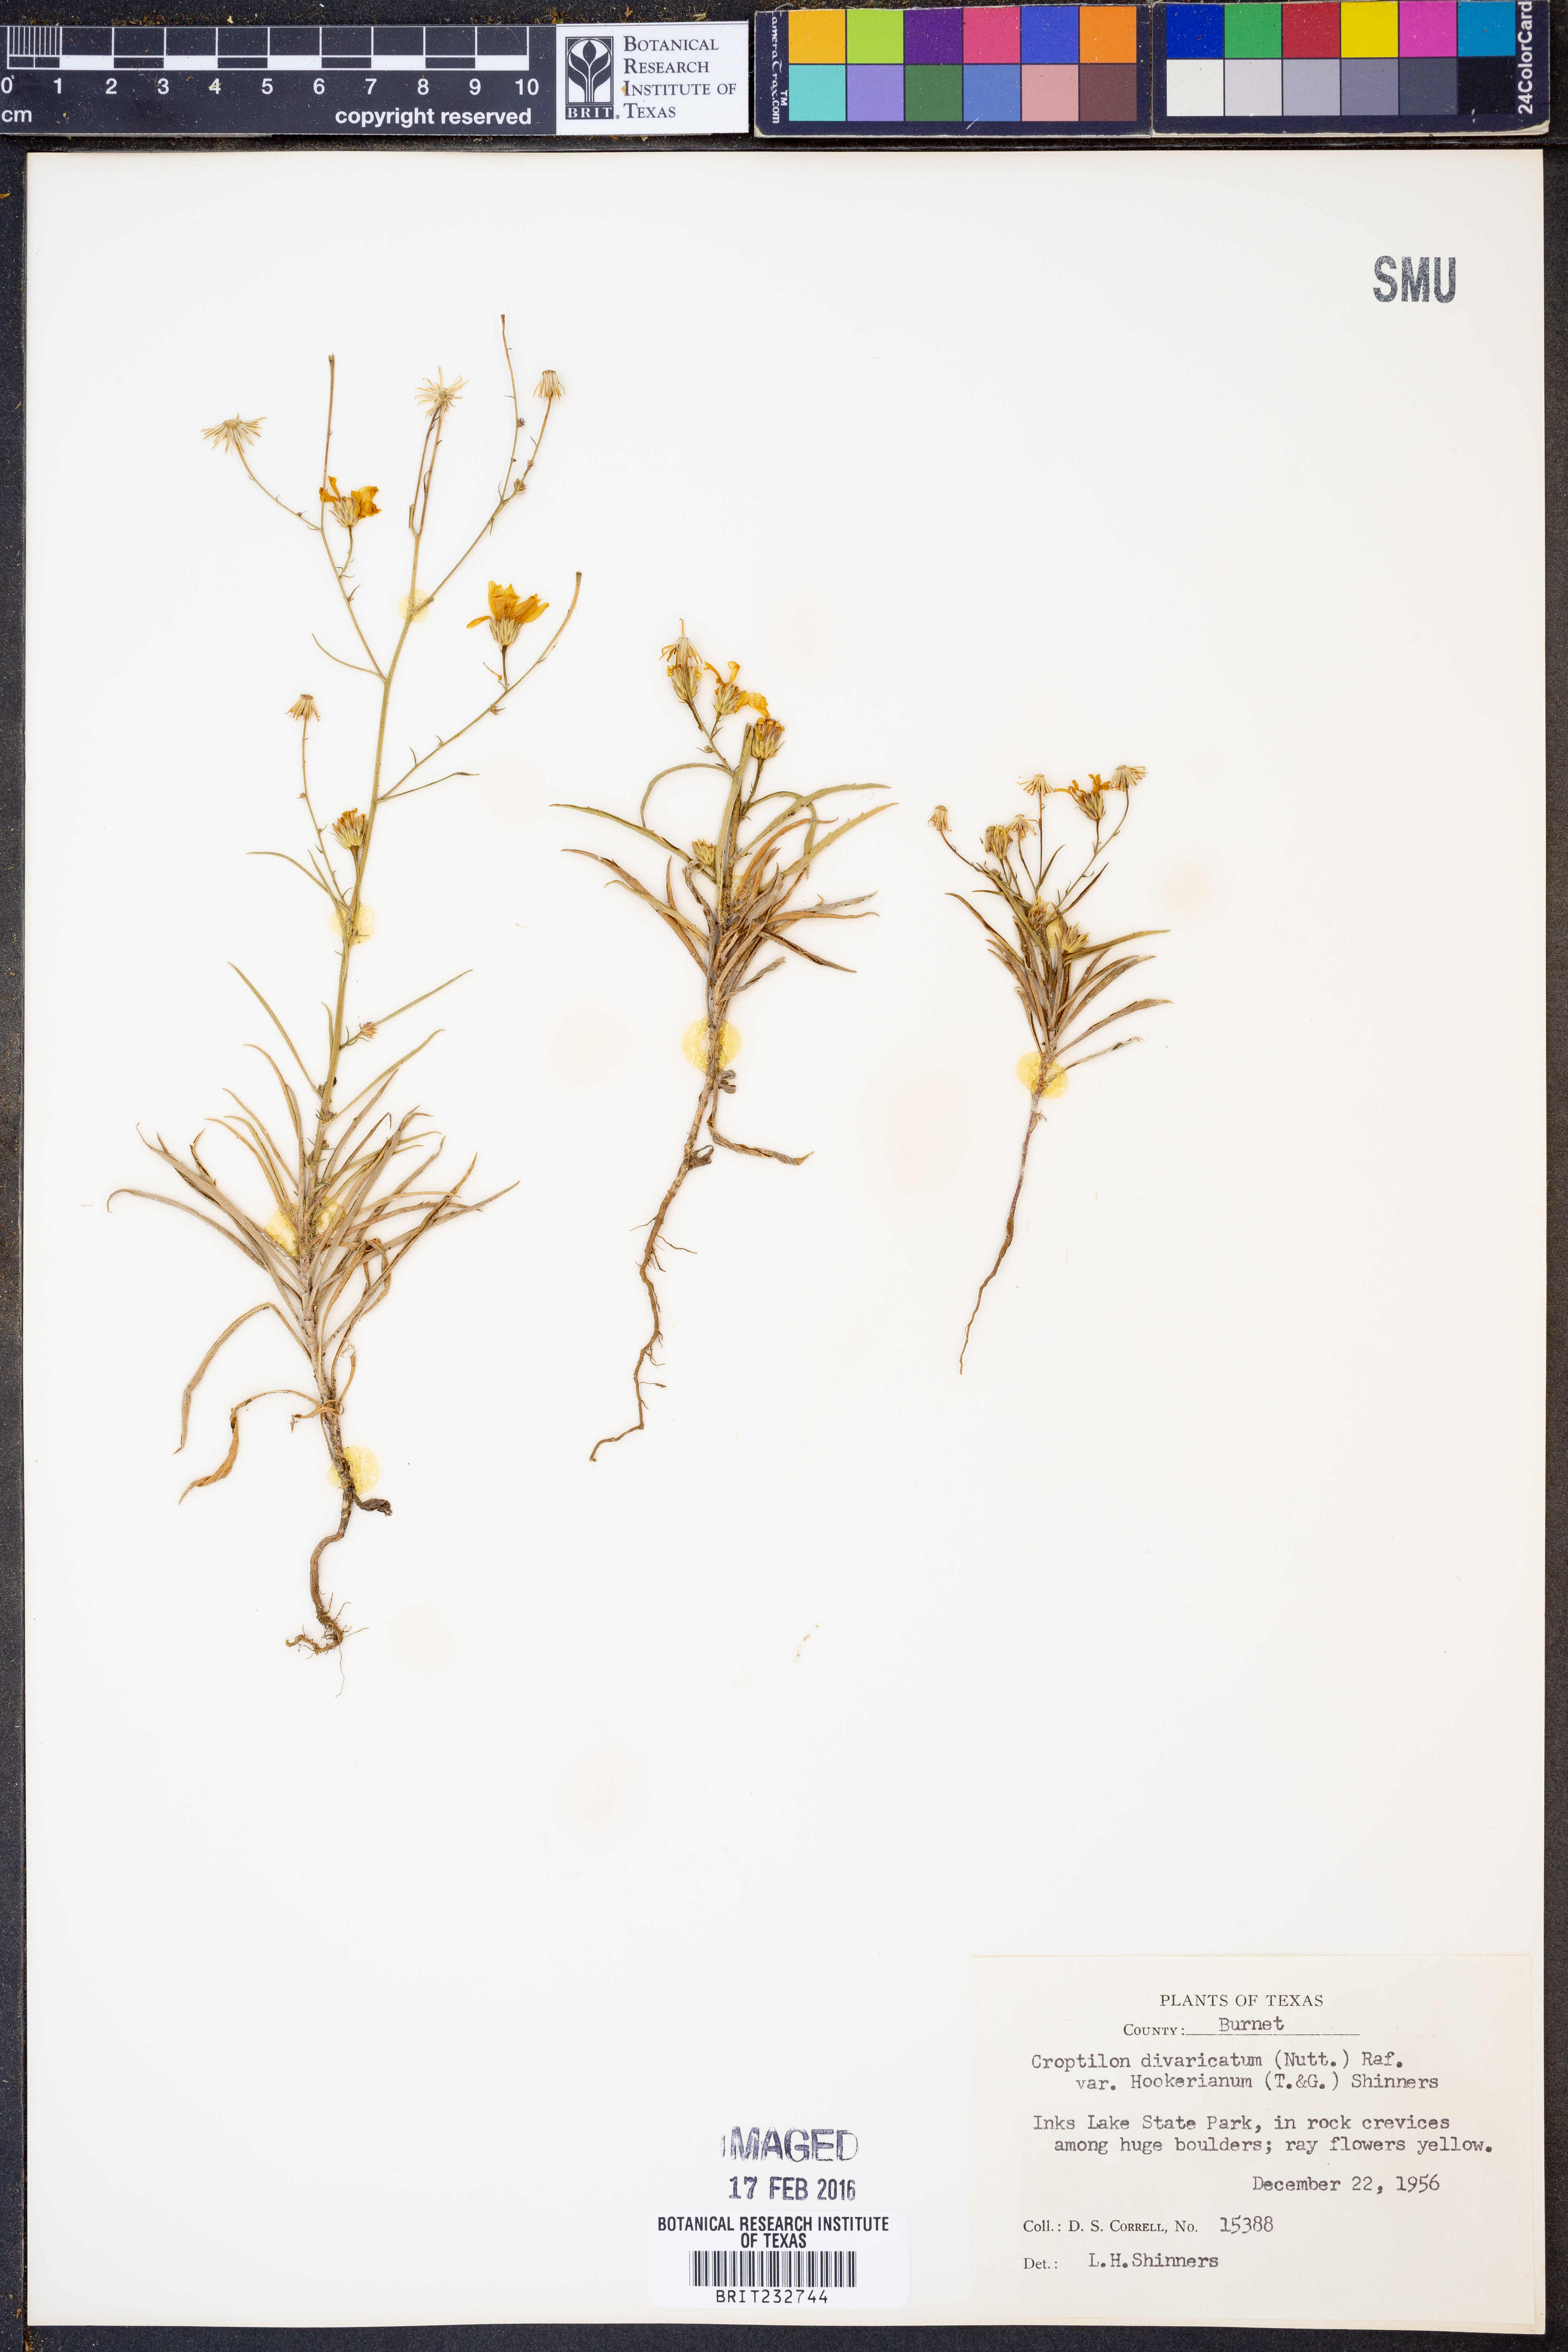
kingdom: Plantae
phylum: Tracheophyta
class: Magnoliopsida
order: Asterales
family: Asteraceae
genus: Croptilon
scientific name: Croptilon hookerianum
